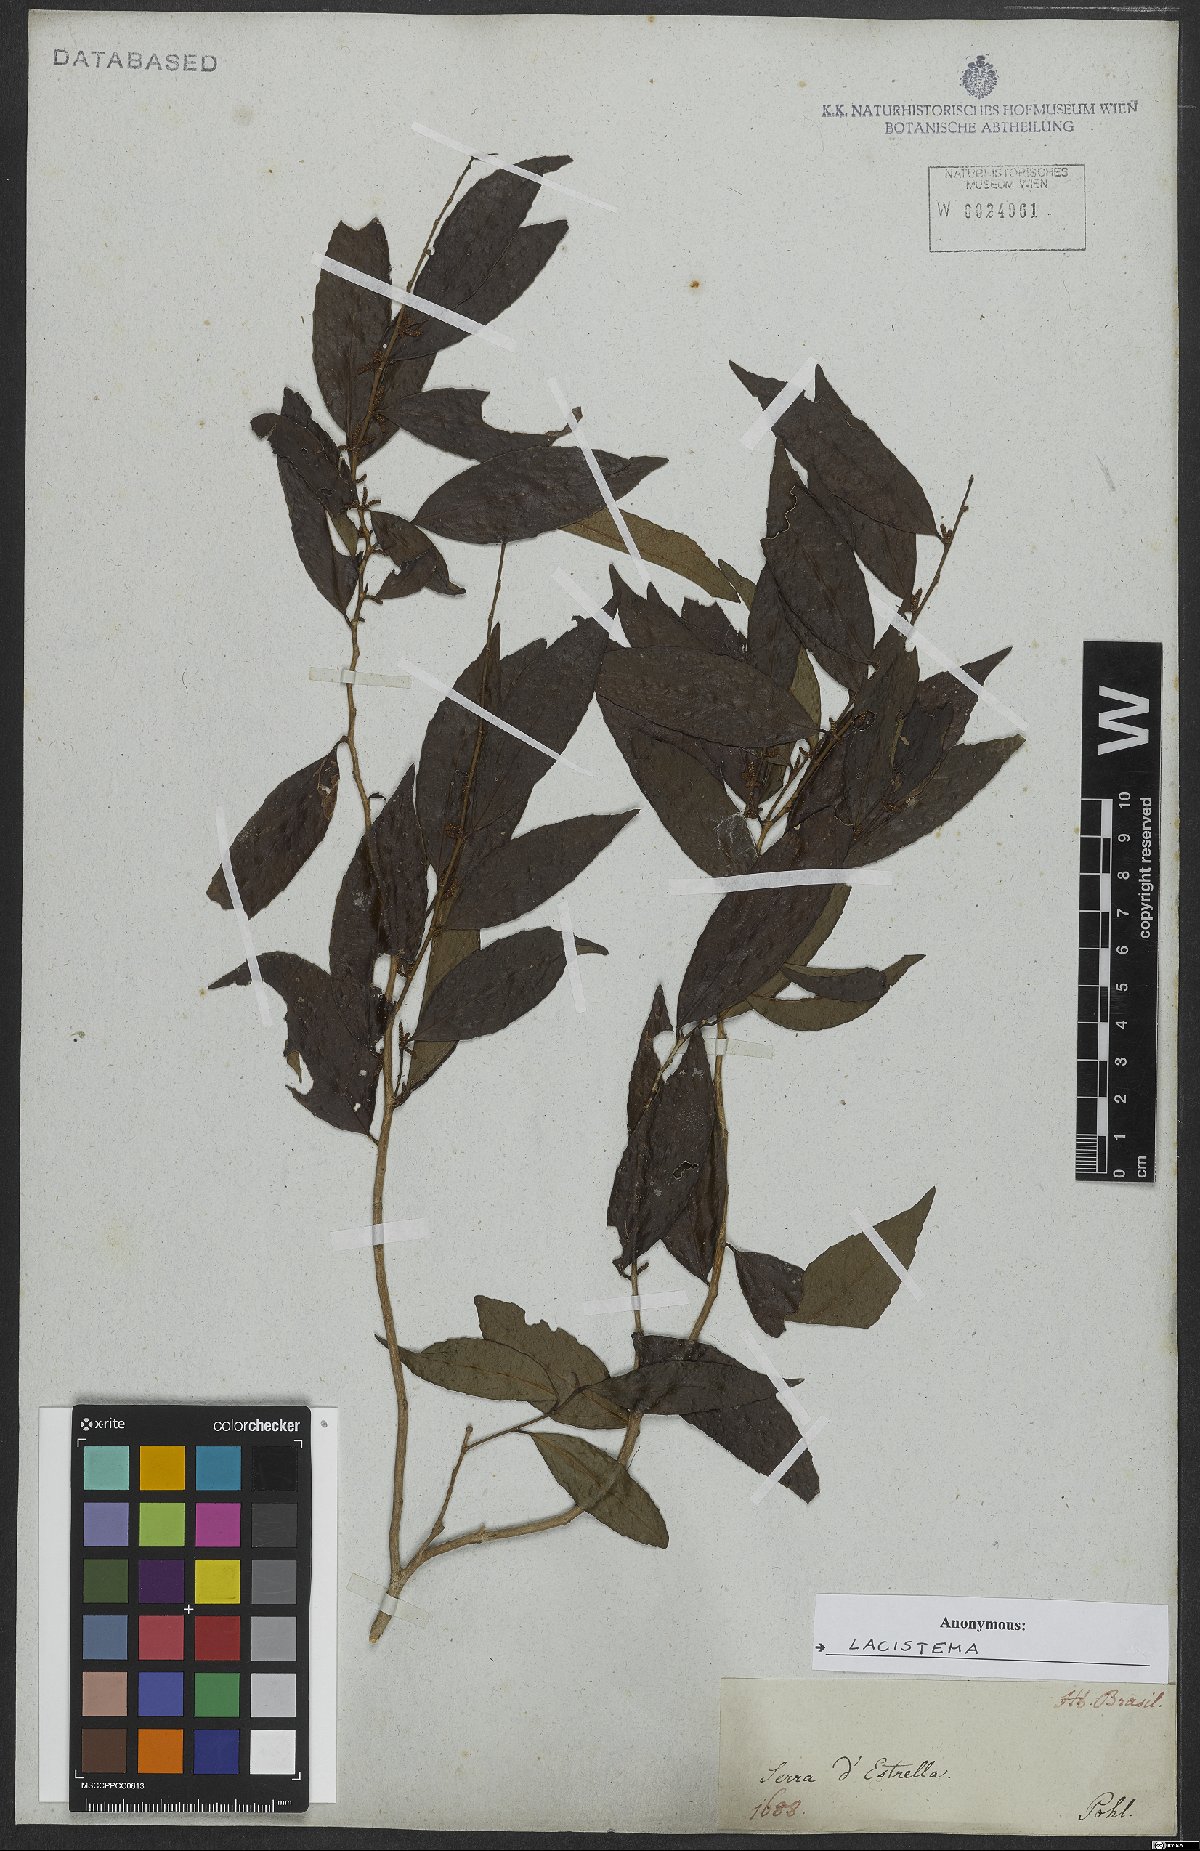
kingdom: Plantae
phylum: Tracheophyta
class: Magnoliopsida
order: Malpighiales
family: Lacistemataceae
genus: Lacistema
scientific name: Lacistema
